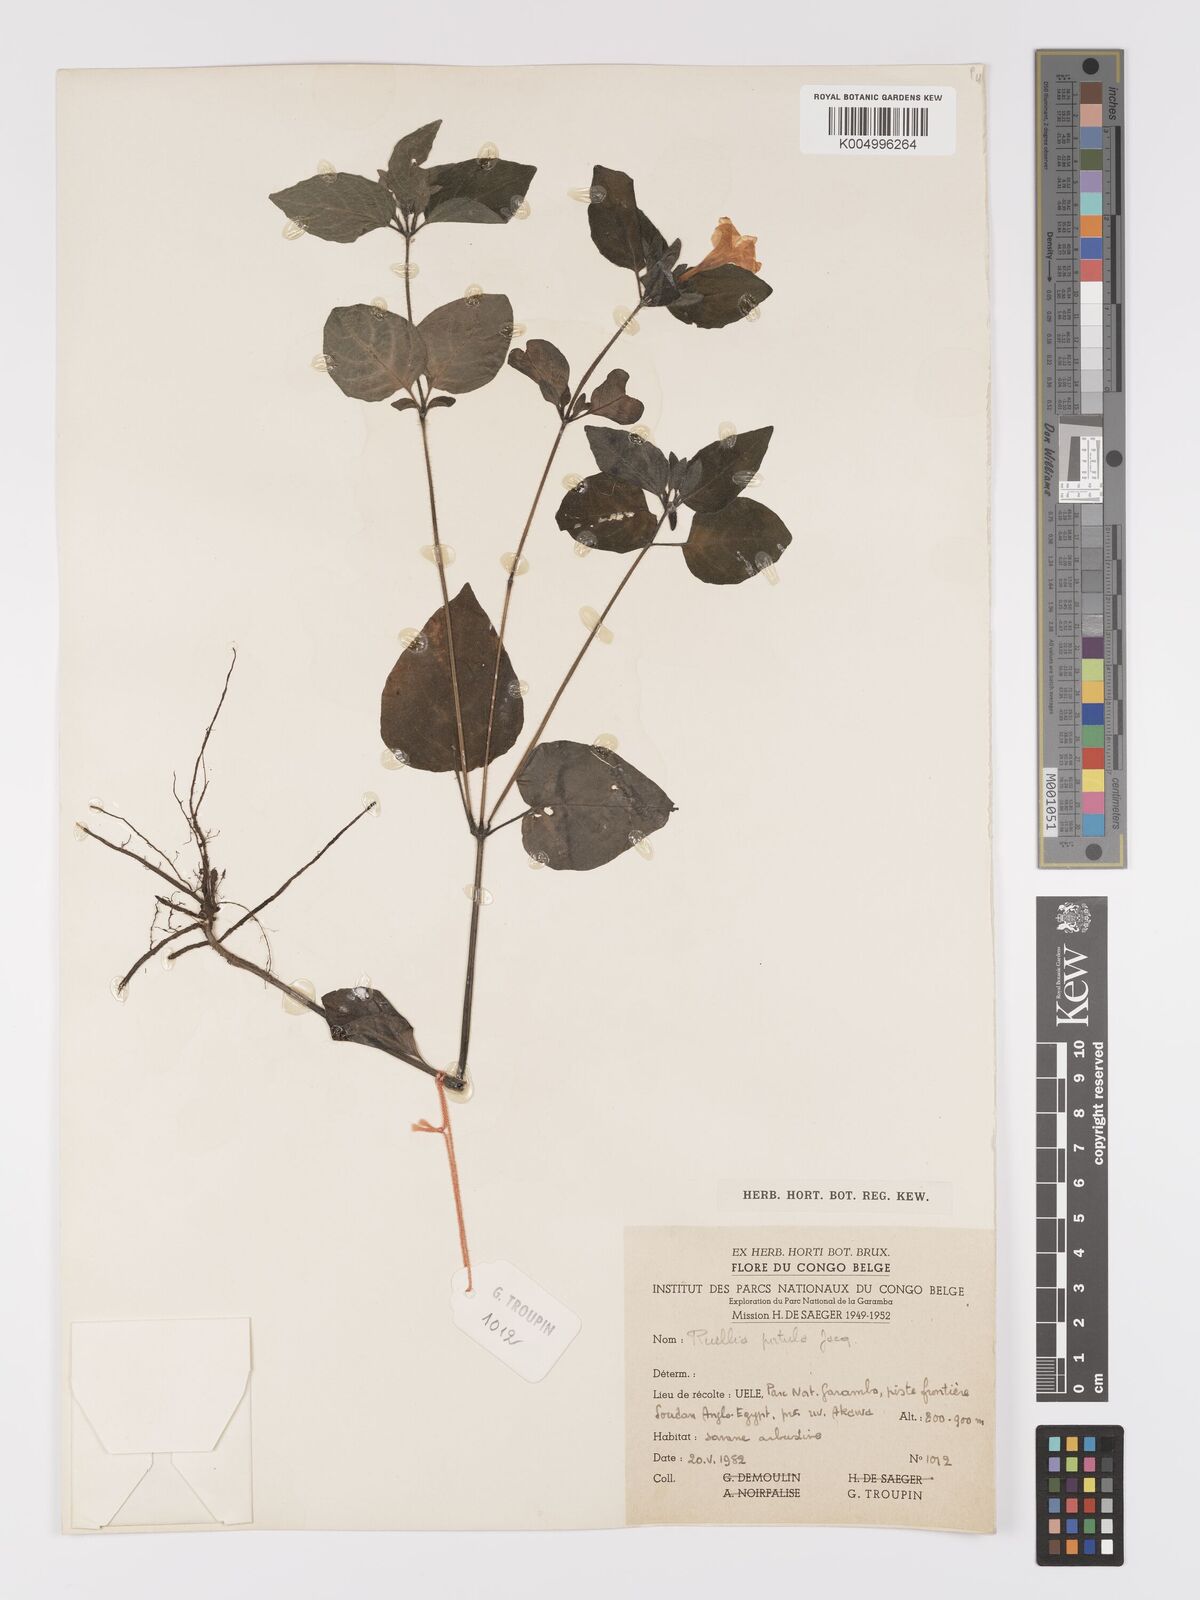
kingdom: Plantae
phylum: Tracheophyta
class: Magnoliopsida
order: Lamiales
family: Acanthaceae
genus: Ruellia
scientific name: Ruellia praetermissa
